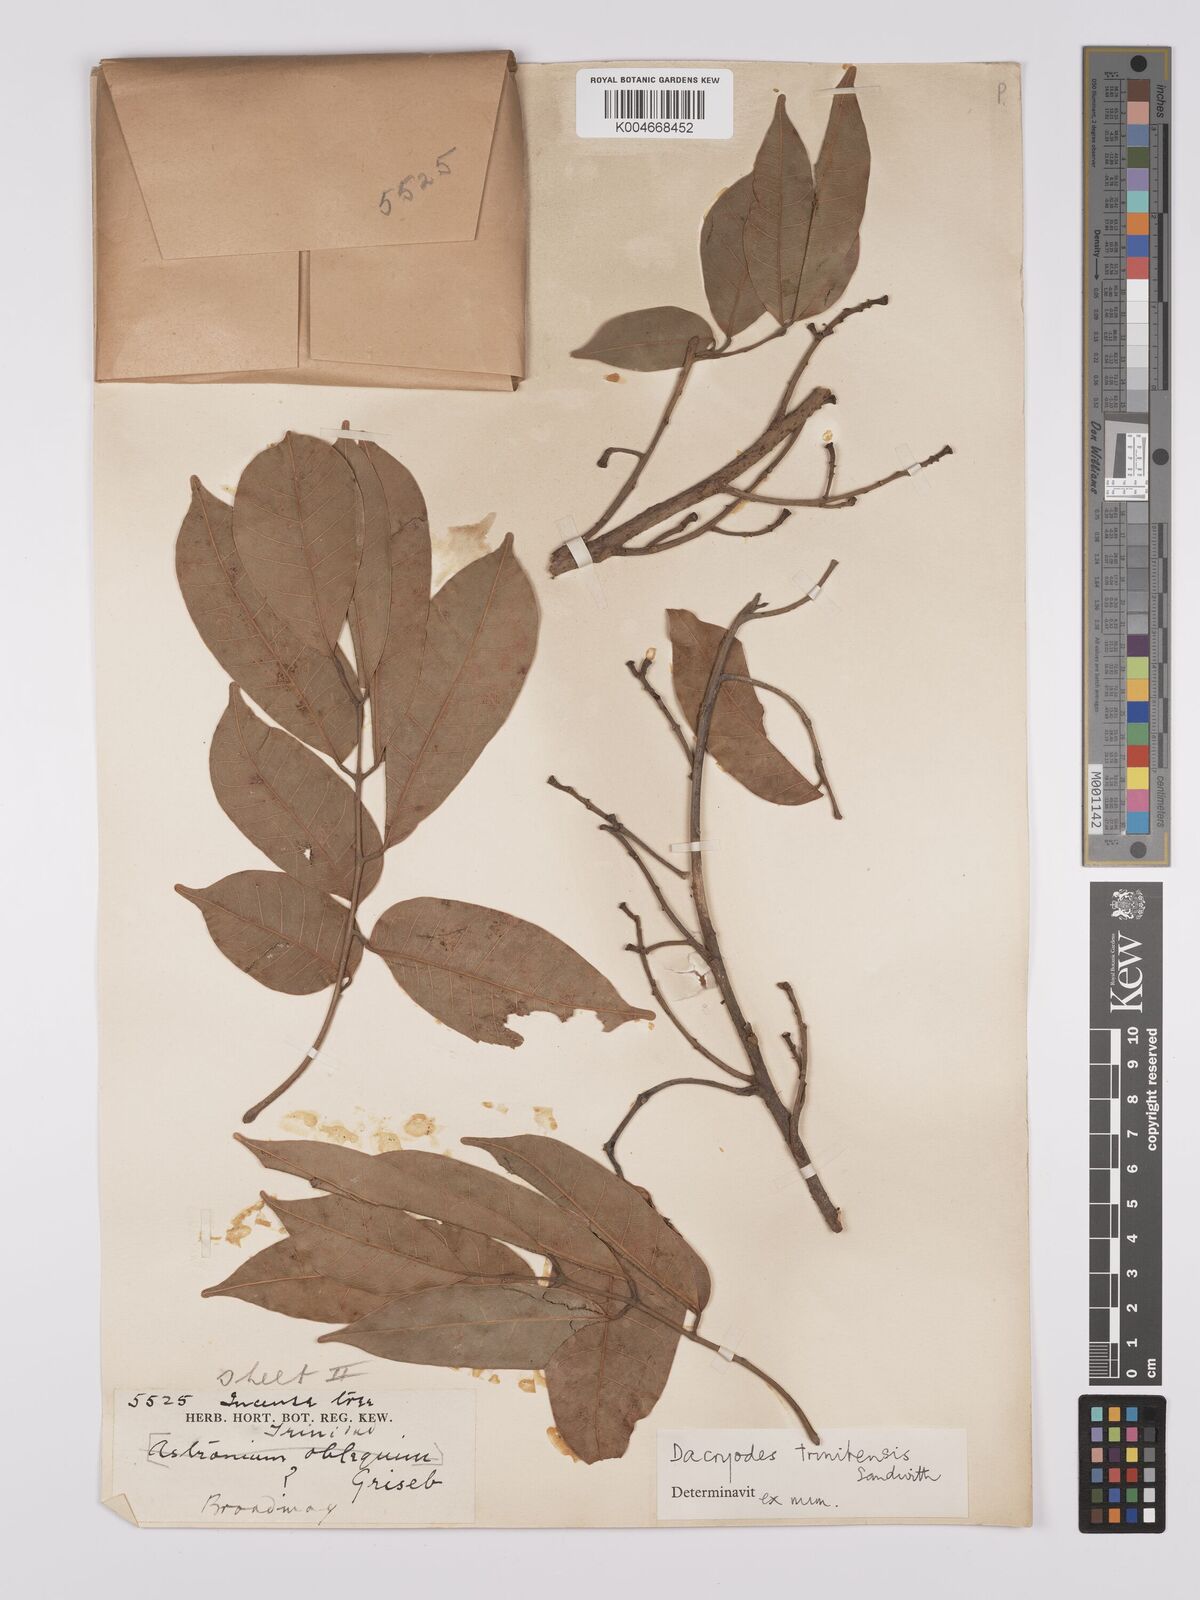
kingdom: Plantae
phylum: Tracheophyta
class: Magnoliopsida
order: Sapindales
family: Burseraceae
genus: Dacryodes
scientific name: Dacryodes belemensis
